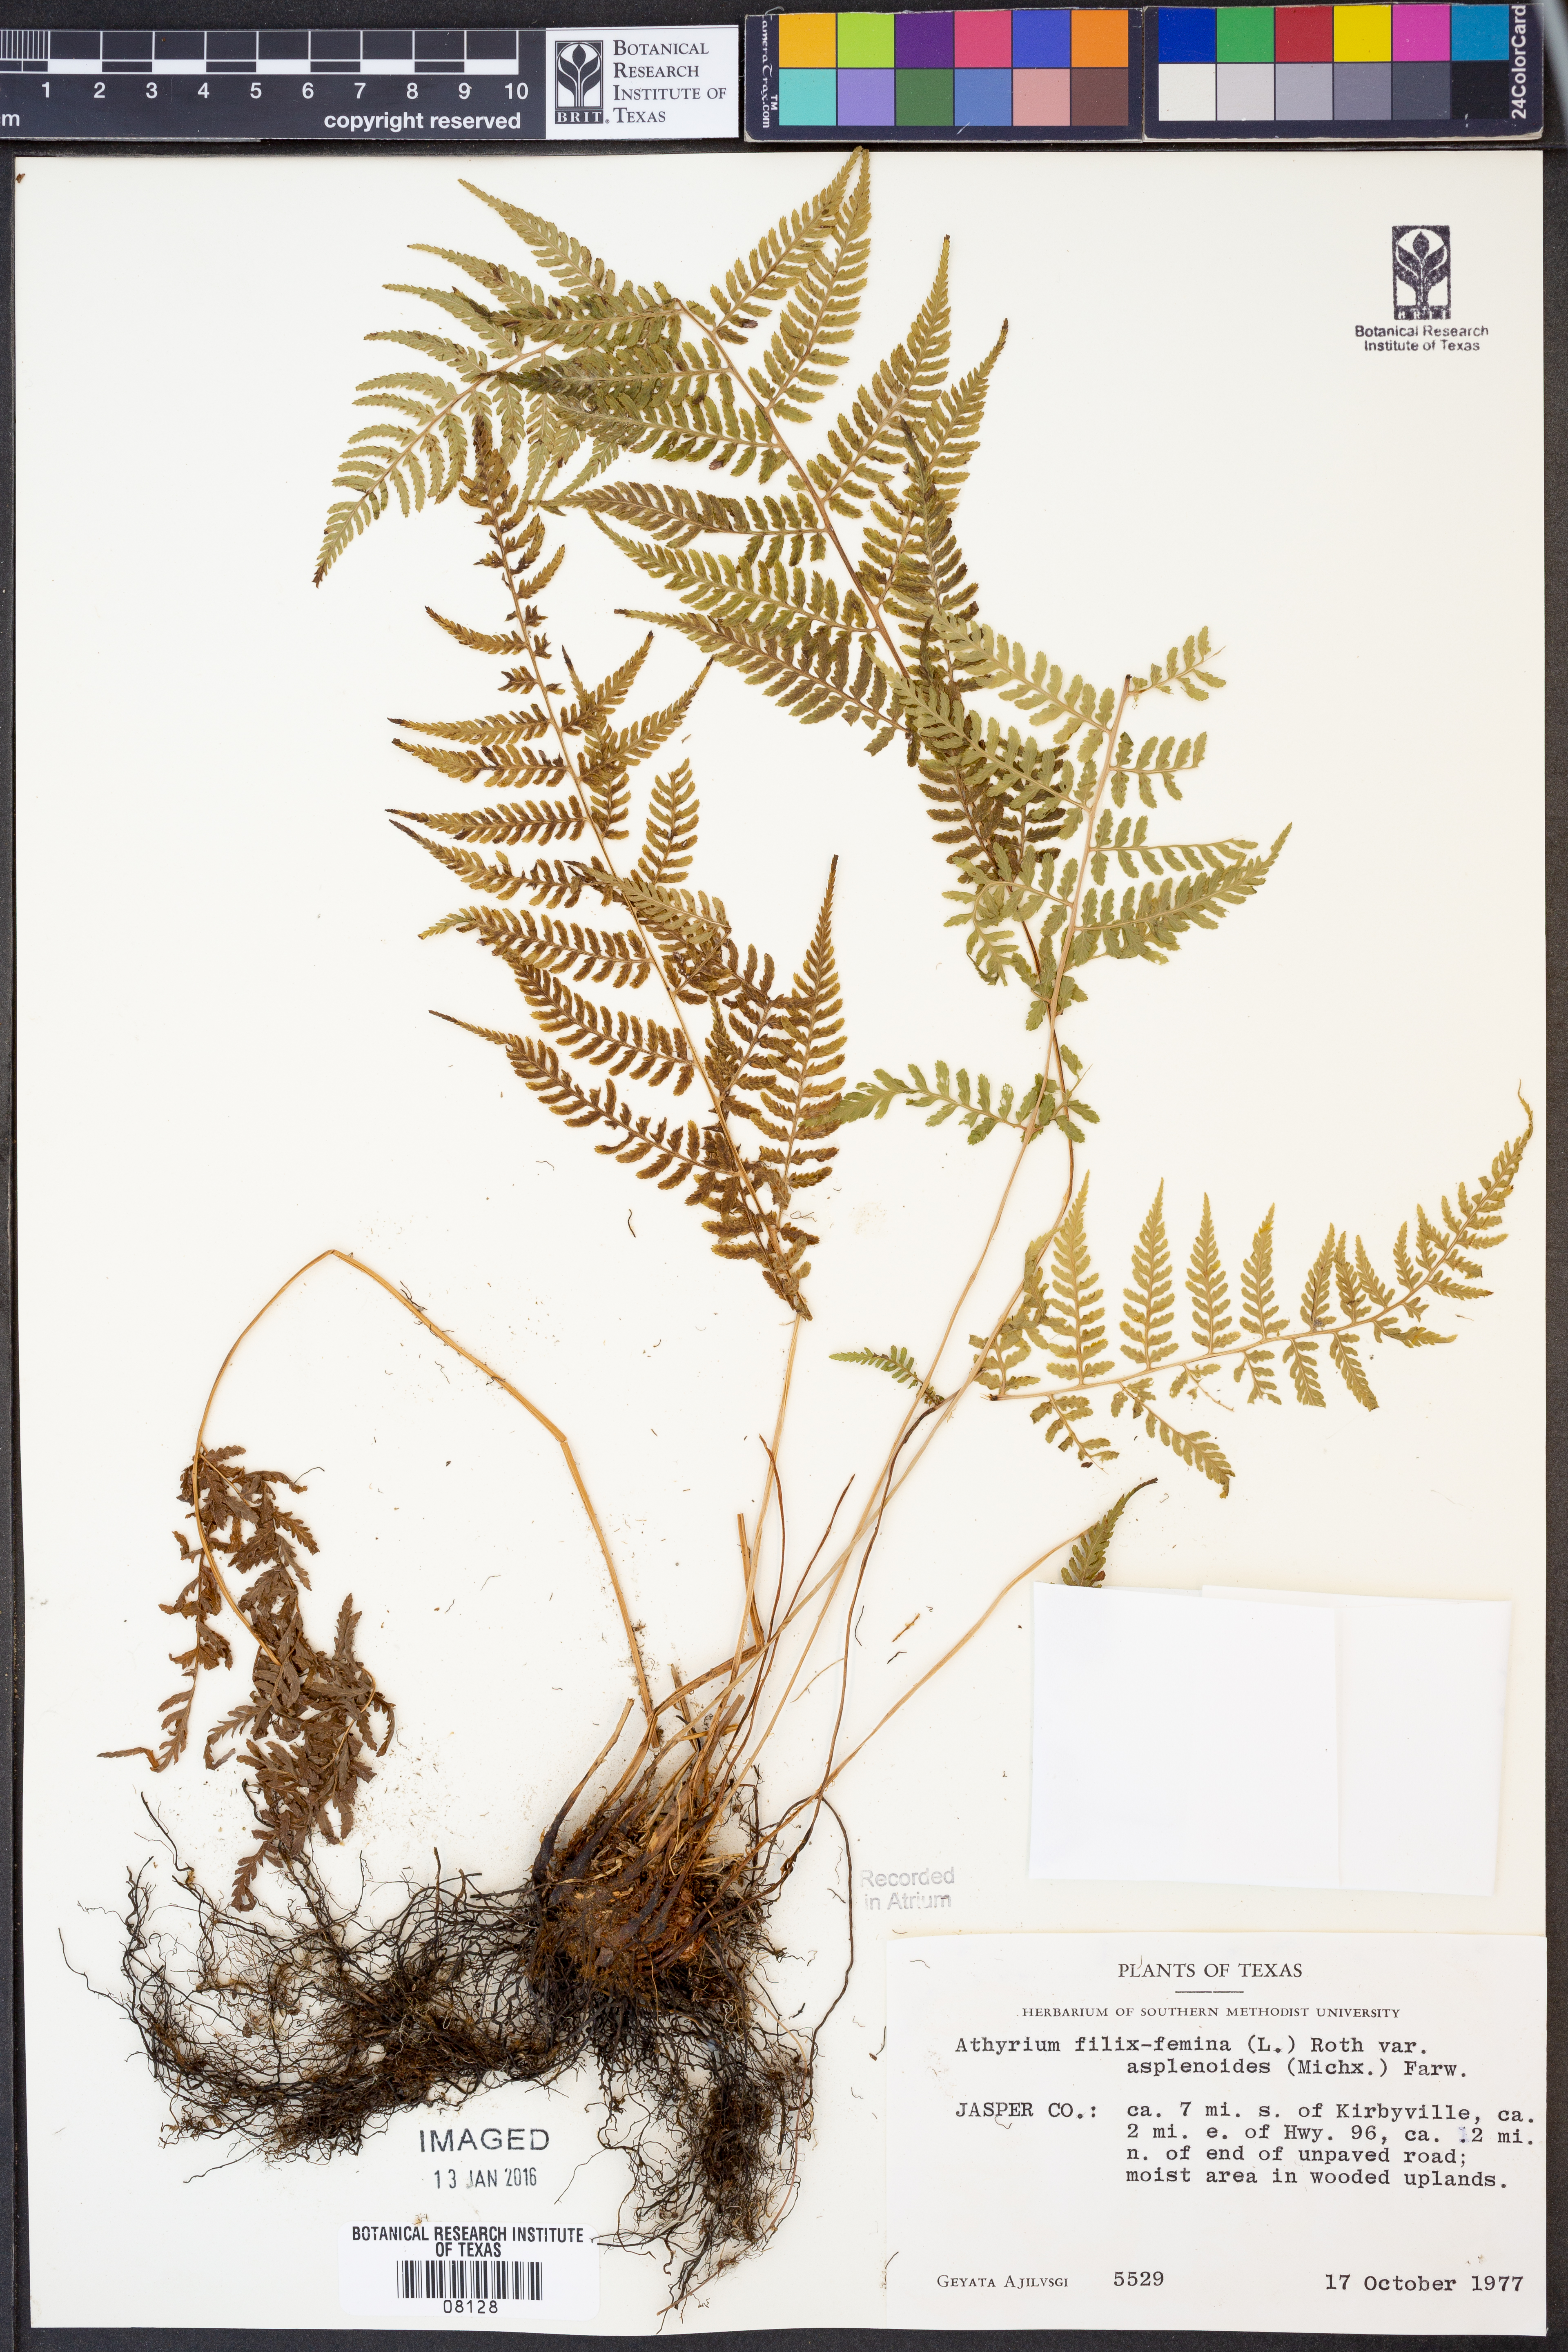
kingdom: Plantae
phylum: Tracheophyta
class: Polypodiopsida
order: Polypodiales
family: Athyriaceae
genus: Athyrium
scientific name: Athyrium asplenioides
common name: Southern lady fern
